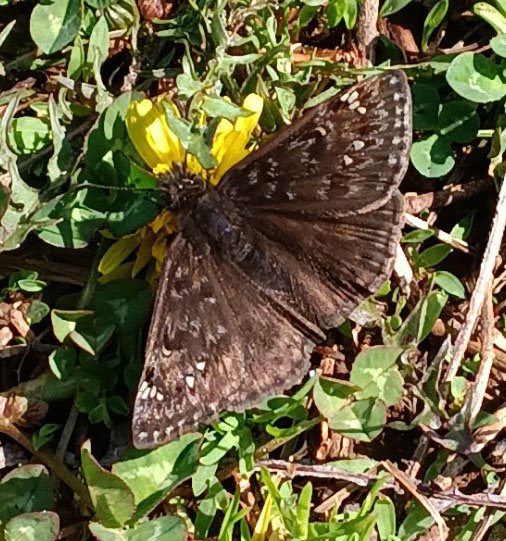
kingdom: Animalia
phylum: Arthropoda
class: Insecta
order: Lepidoptera
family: Hesperiidae
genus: Gesta
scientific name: Gesta
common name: Juvenal's Duskywing
